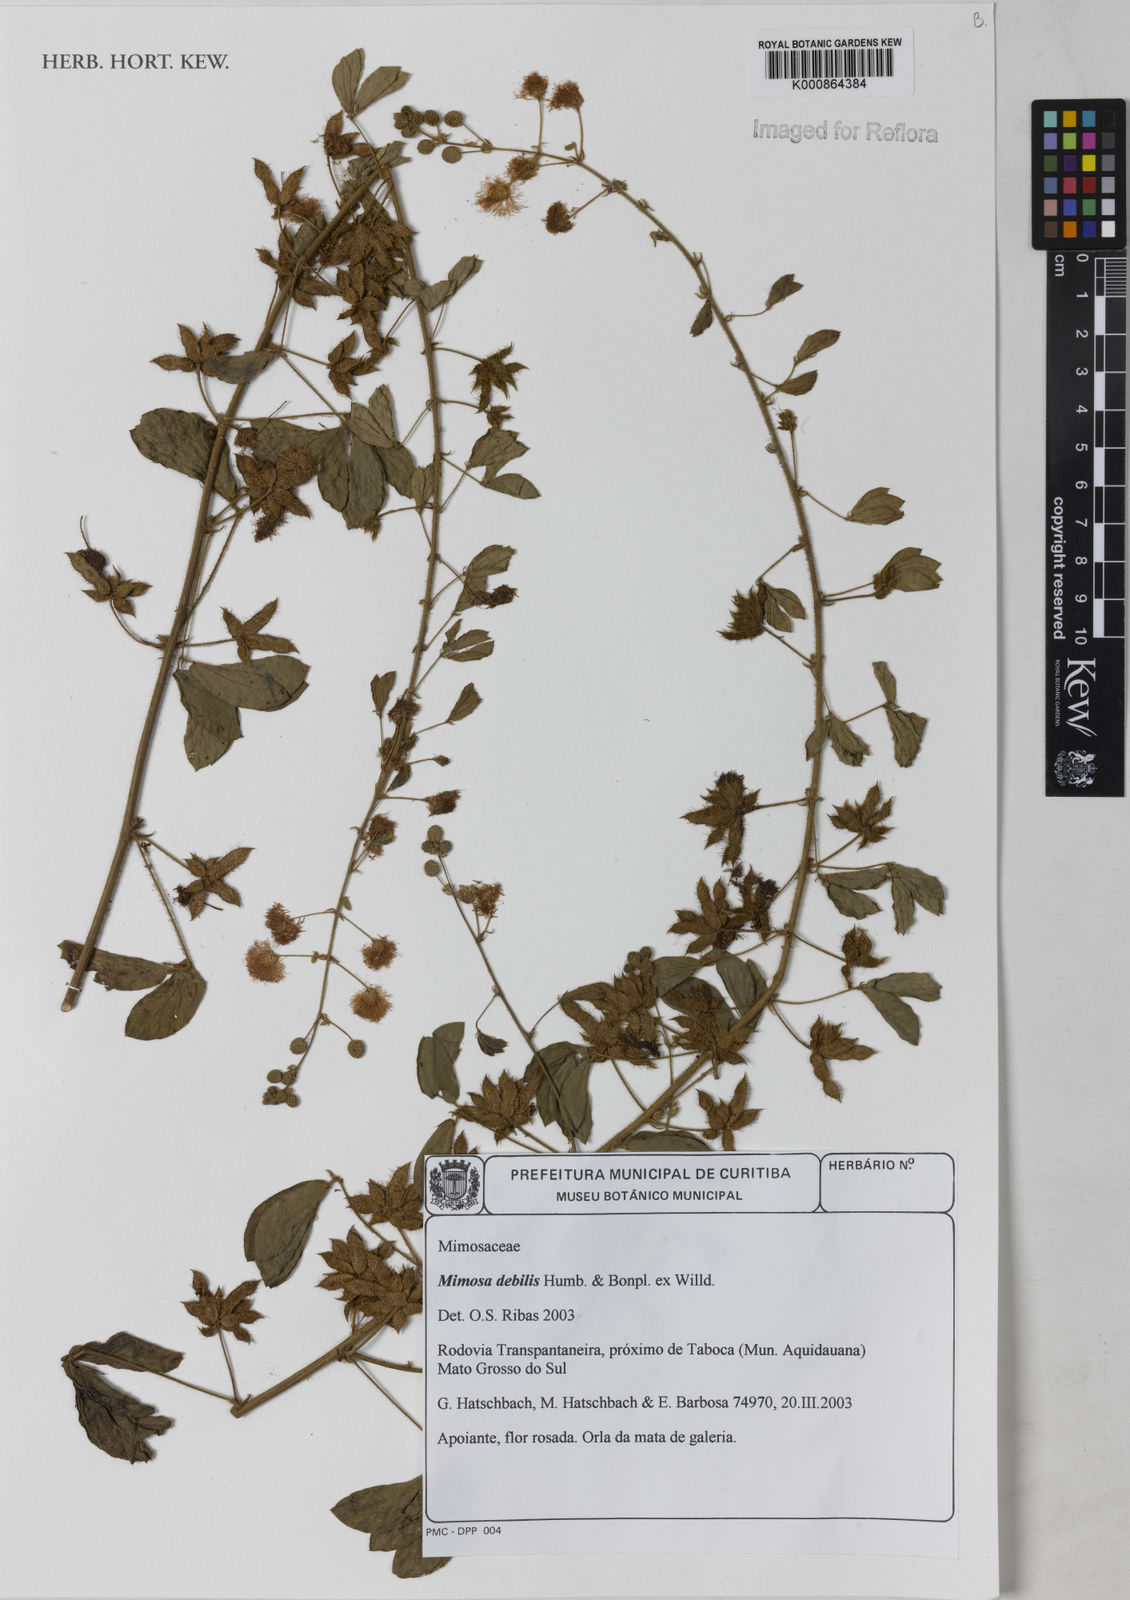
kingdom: Plantae
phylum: Tracheophyta
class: Magnoliopsida
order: Fabales
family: Fabaceae
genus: Mimosa
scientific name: Mimosa
